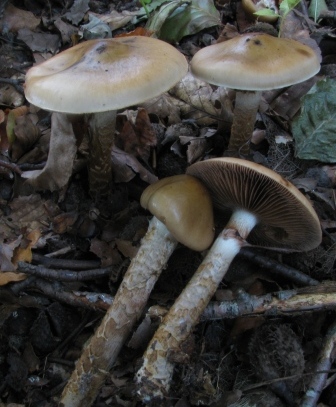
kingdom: Fungi
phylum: Basidiomycota
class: Agaricomycetes
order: Agaricales
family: Cortinariaceae
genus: Cortinarius
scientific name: Cortinarius trivialis
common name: brunslimet slørhat
